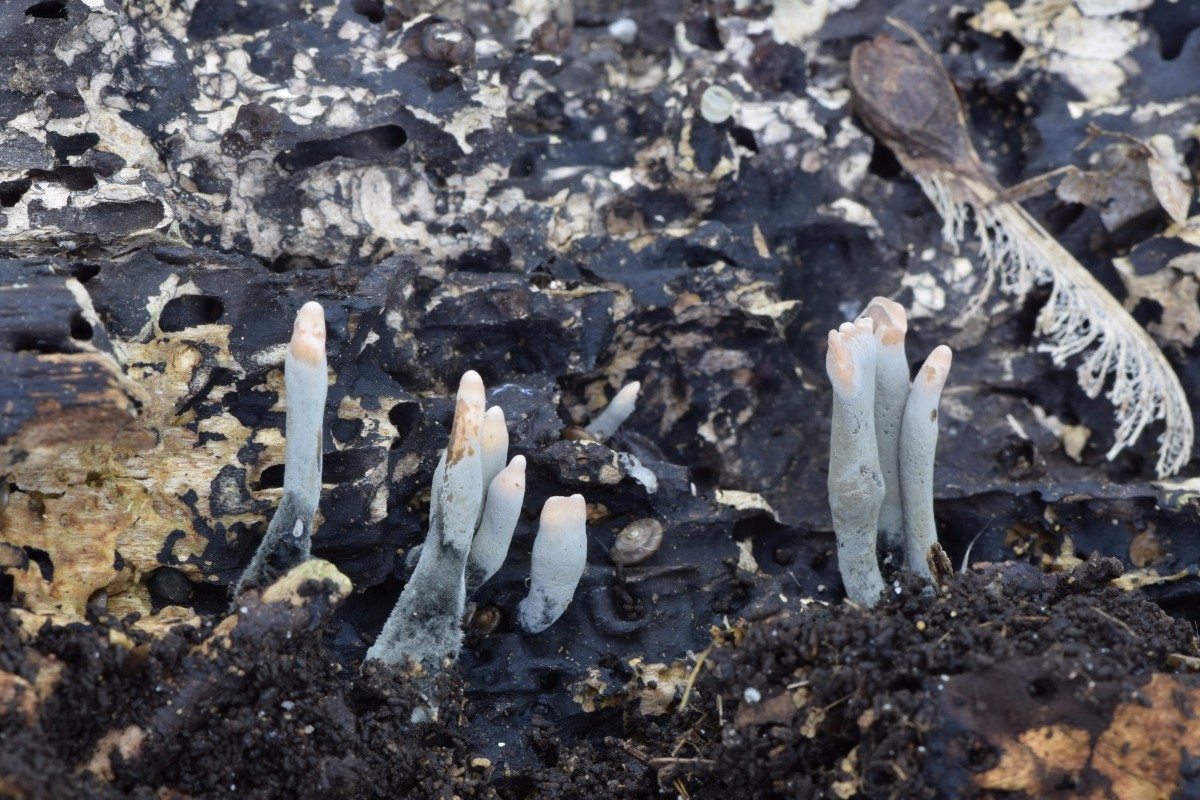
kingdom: Fungi
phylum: Ascomycota
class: Sordariomycetes
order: Xylariales
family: Xylariaceae
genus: Xylaria
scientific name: Xylaria longipes
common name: slank stødsvamp
